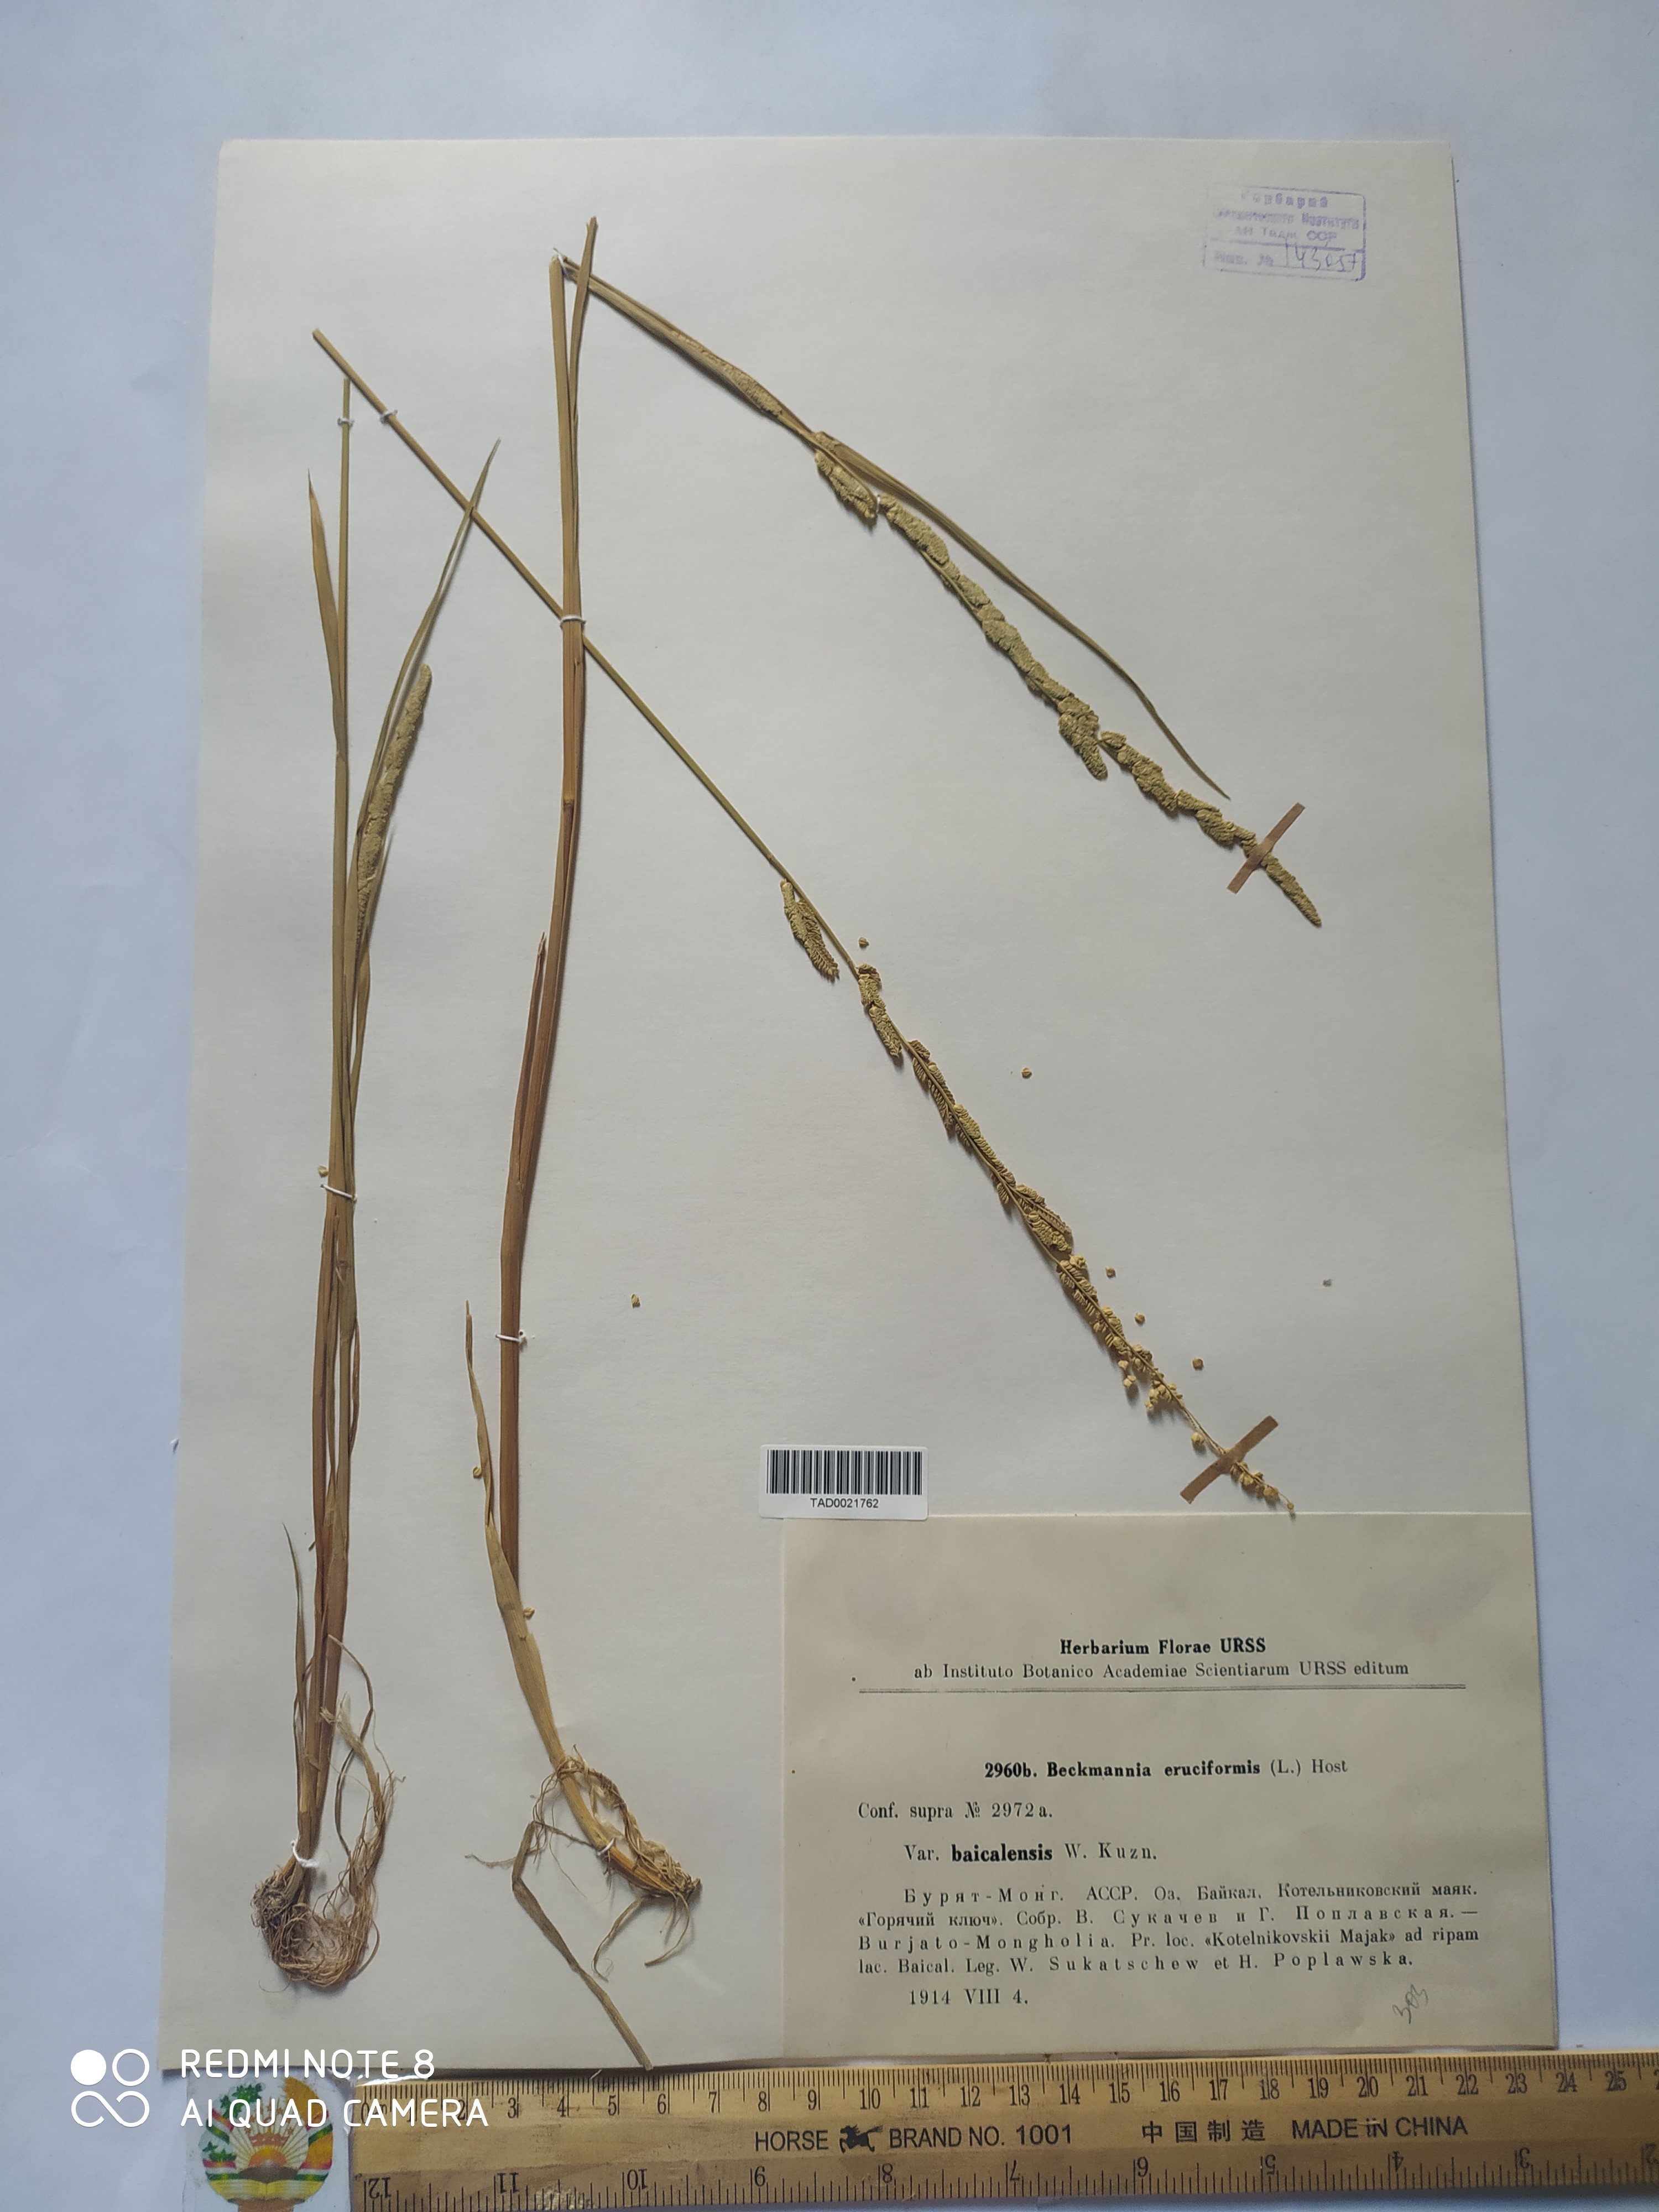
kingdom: Plantae
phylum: Tracheophyta
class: Liliopsida
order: Poales
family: Poaceae
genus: Beckmannia
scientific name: Beckmannia eruciformis
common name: European slough-grass
